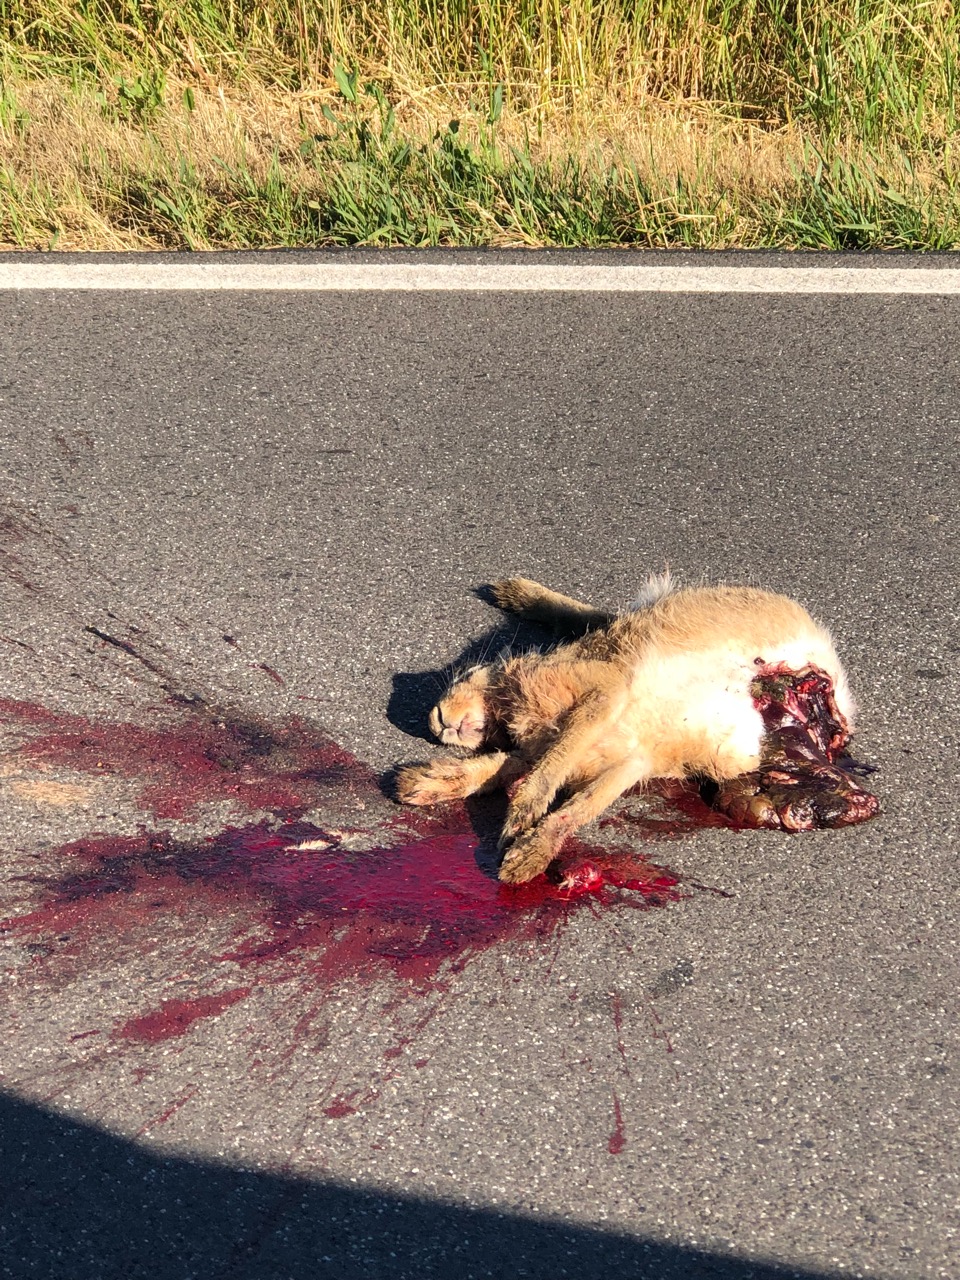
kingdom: Animalia
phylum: Chordata
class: Mammalia
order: Lagomorpha
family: Leporidae
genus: Lepus
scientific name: Lepus europaeus
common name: European hare
